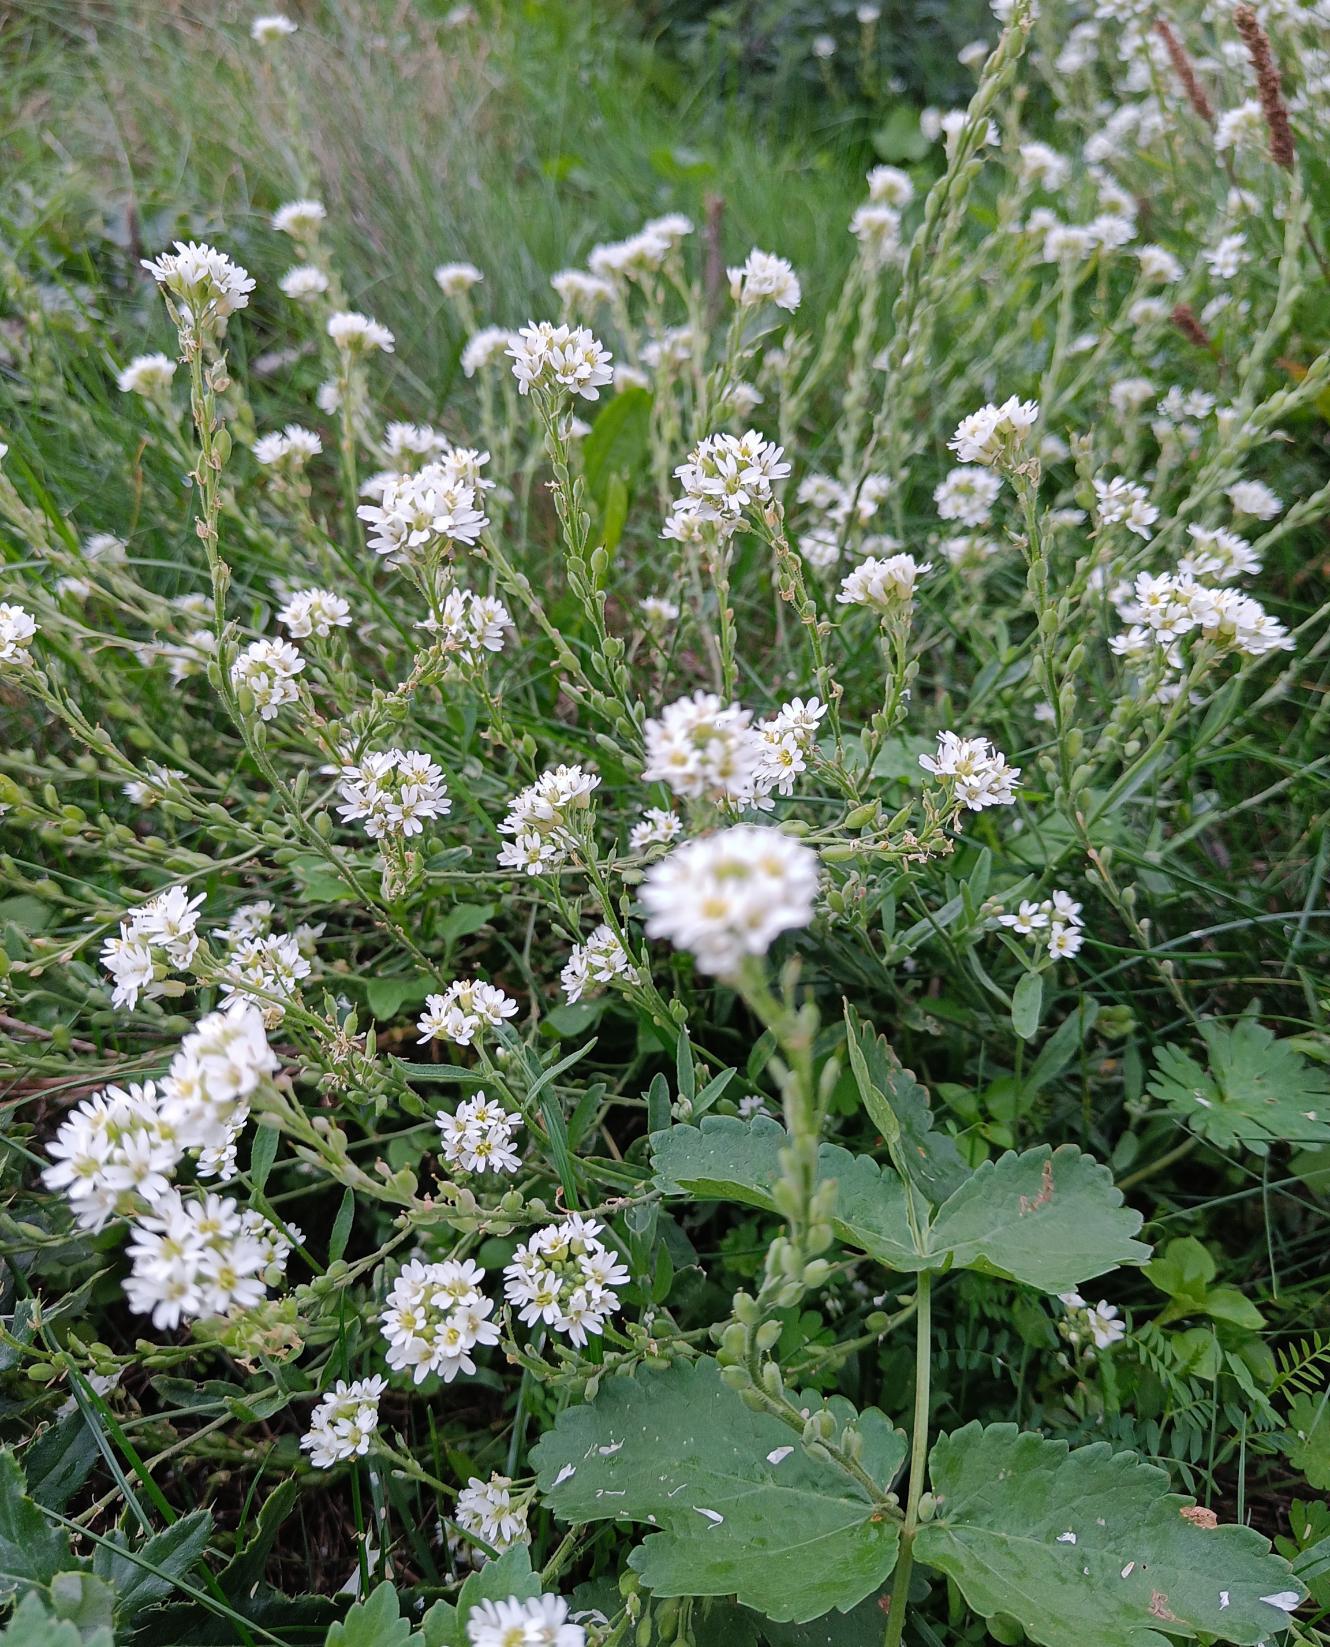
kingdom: Plantae
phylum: Tracheophyta
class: Magnoliopsida
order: Brassicales
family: Brassicaceae
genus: Berteroa
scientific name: Berteroa incana
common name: Kløvplade
